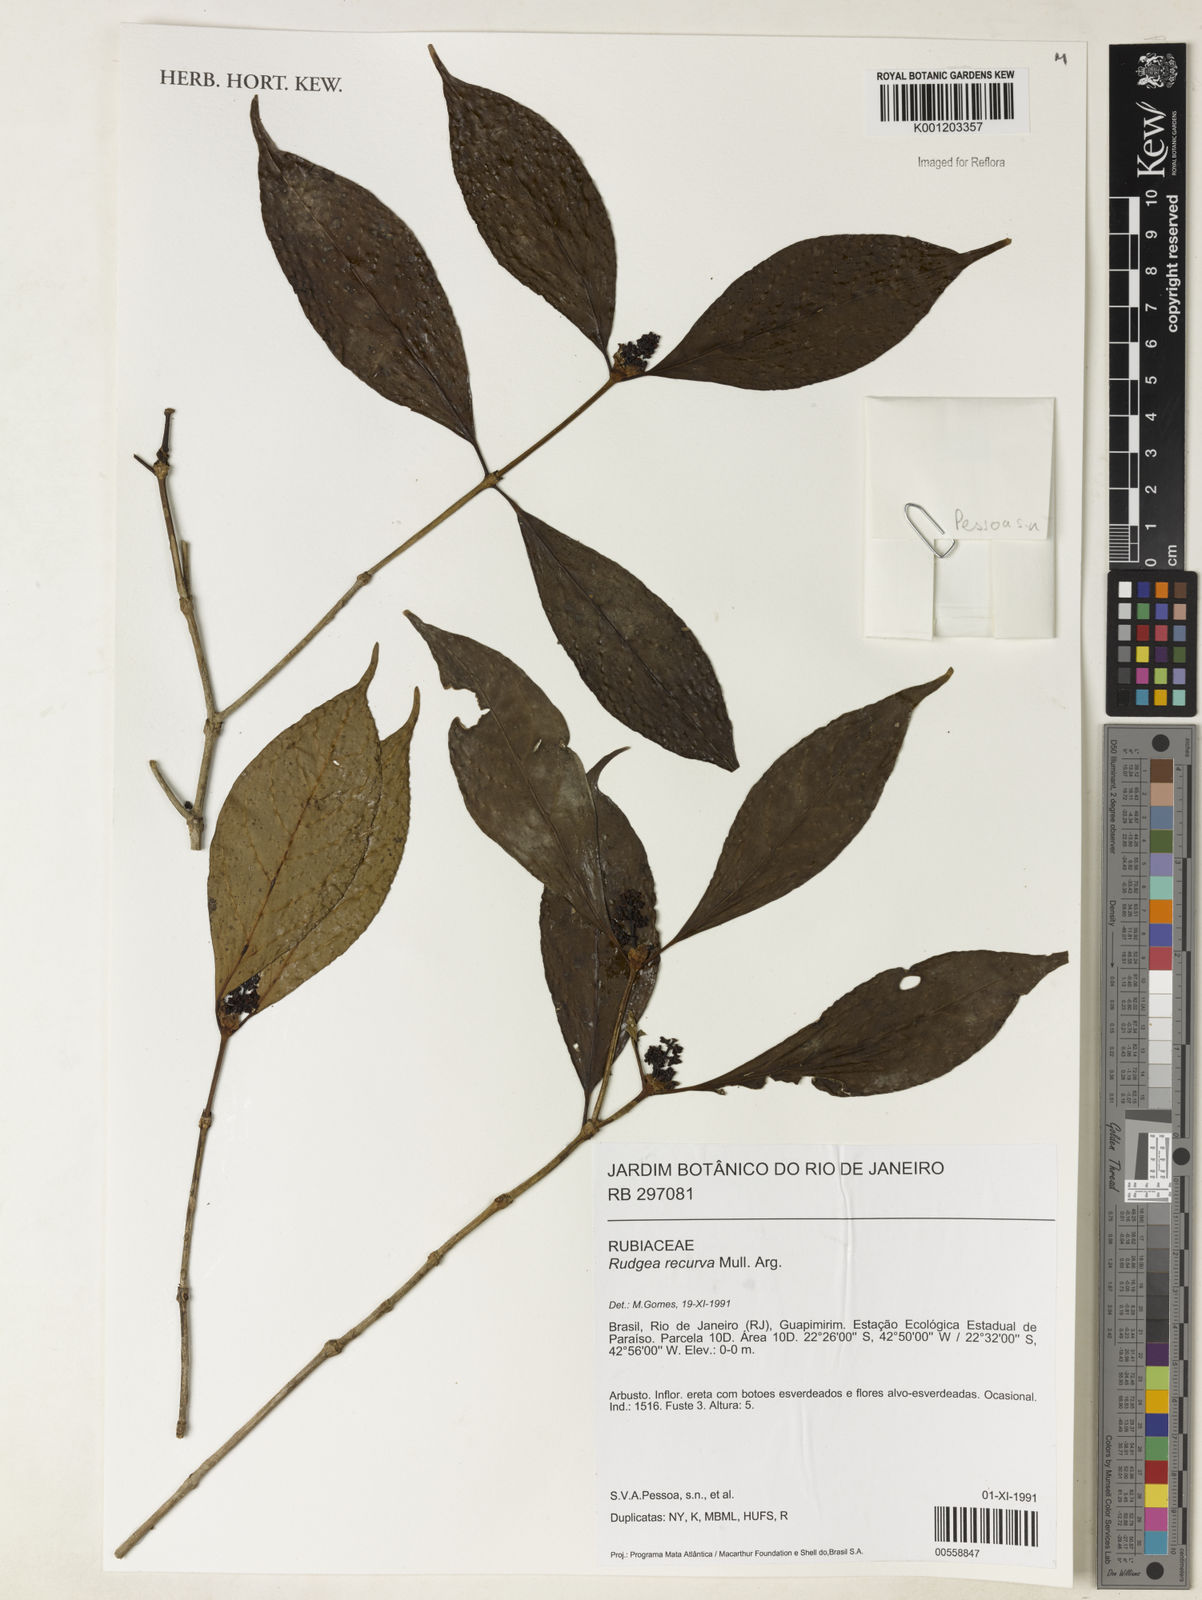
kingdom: Plantae
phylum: Tracheophyta
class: Magnoliopsida
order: Gentianales
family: Rubiaceae
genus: Rudgea
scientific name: Rudgea
